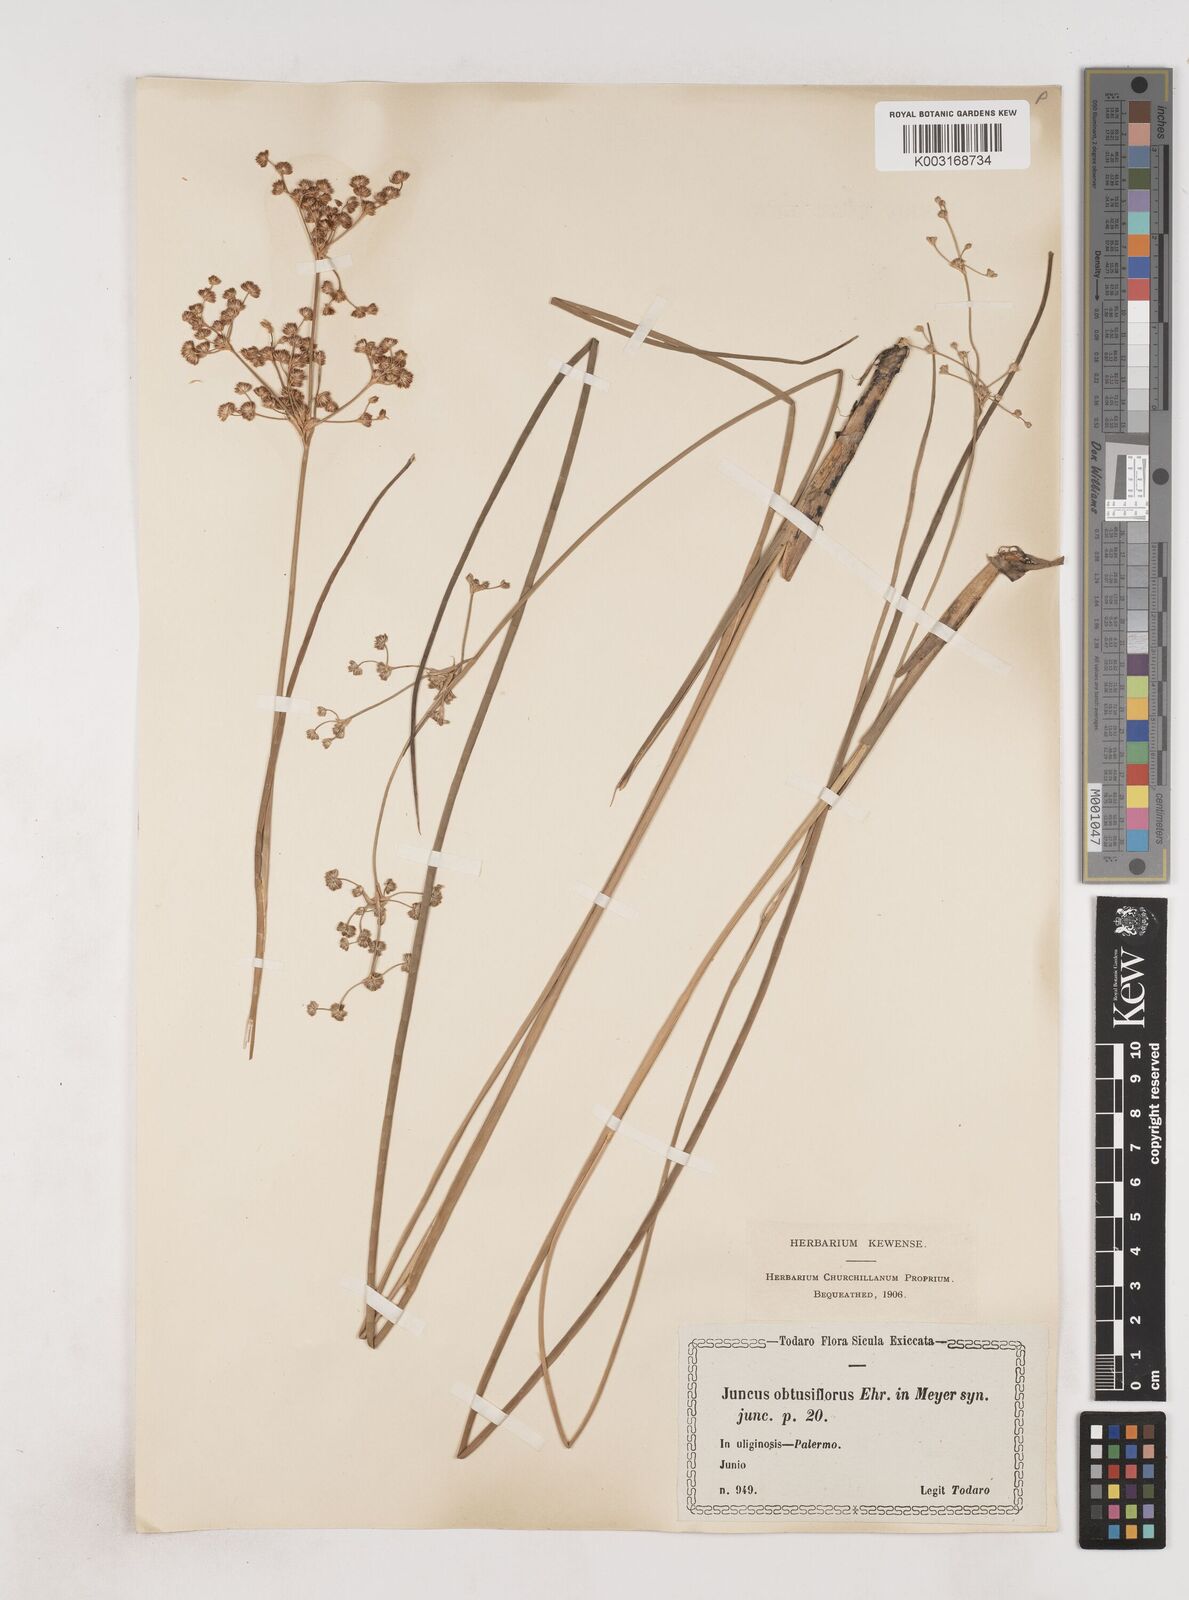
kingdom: Plantae
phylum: Tracheophyta
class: Liliopsida
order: Poales
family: Juncaceae
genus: Juncus
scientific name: Juncus subnodulosus
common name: Blunt-flowered rush
